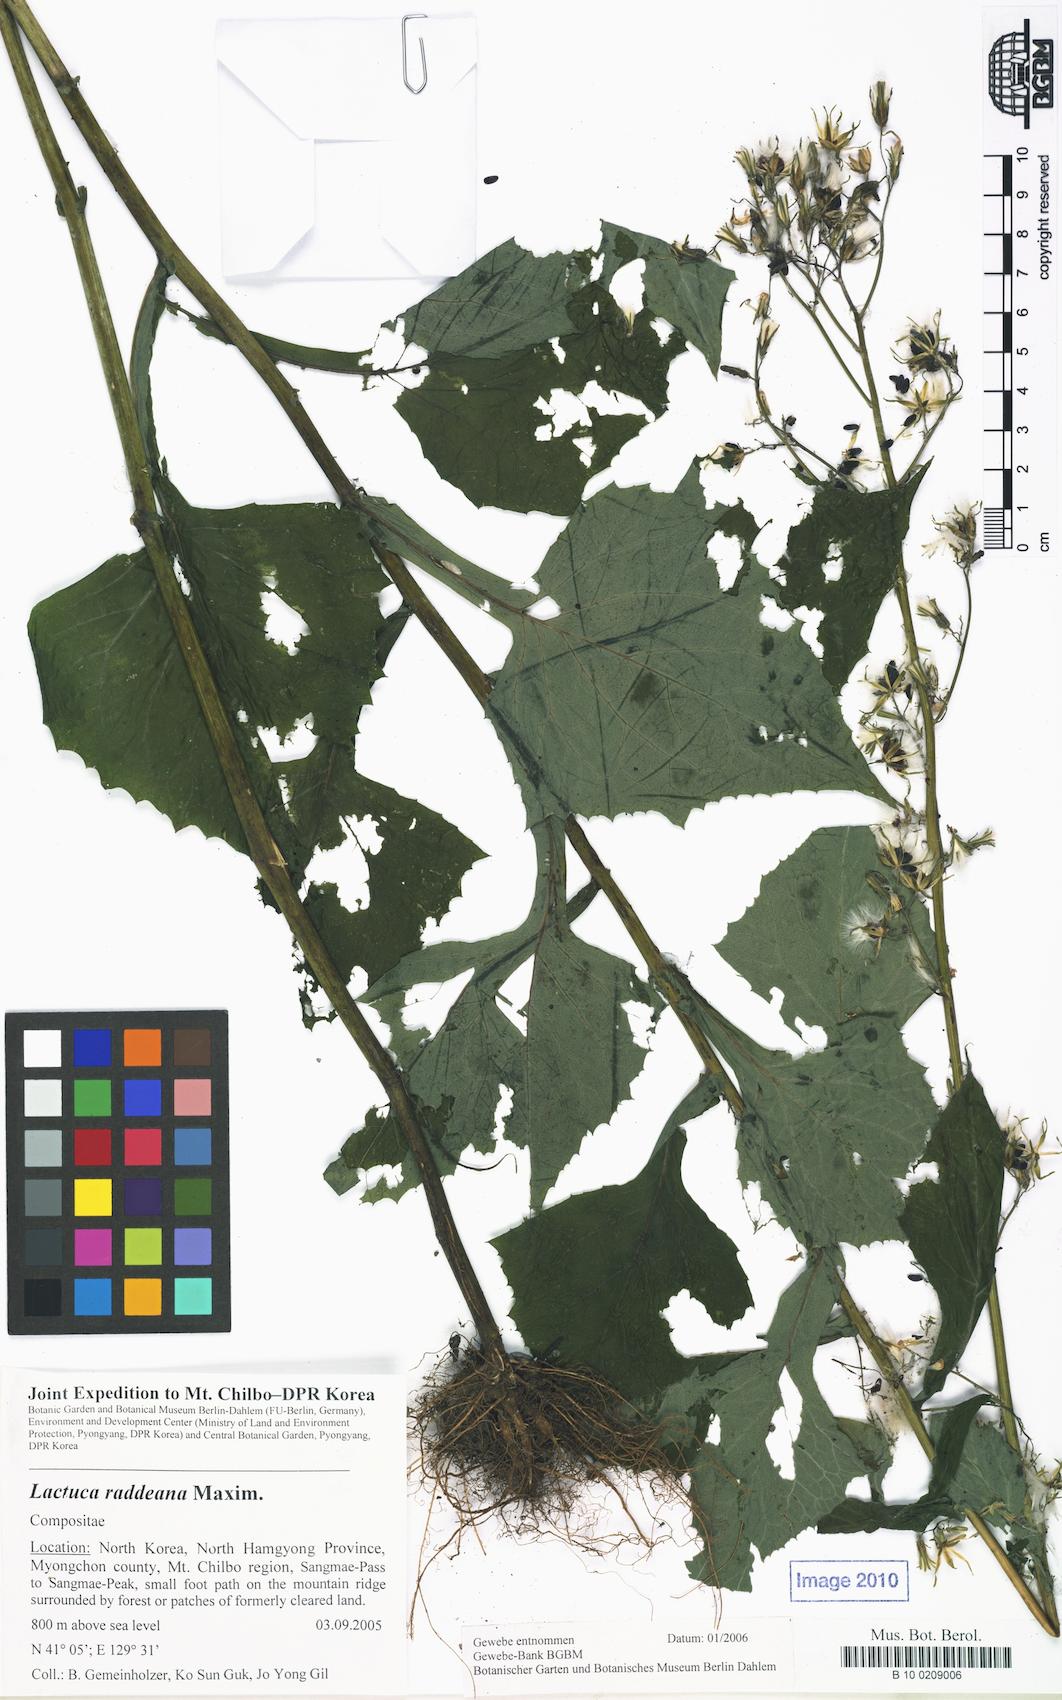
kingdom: Plantae
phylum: Tracheophyta
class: Magnoliopsida
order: Asterales
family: Asteraceae
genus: Lactuca
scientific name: Lactuca raddeana
